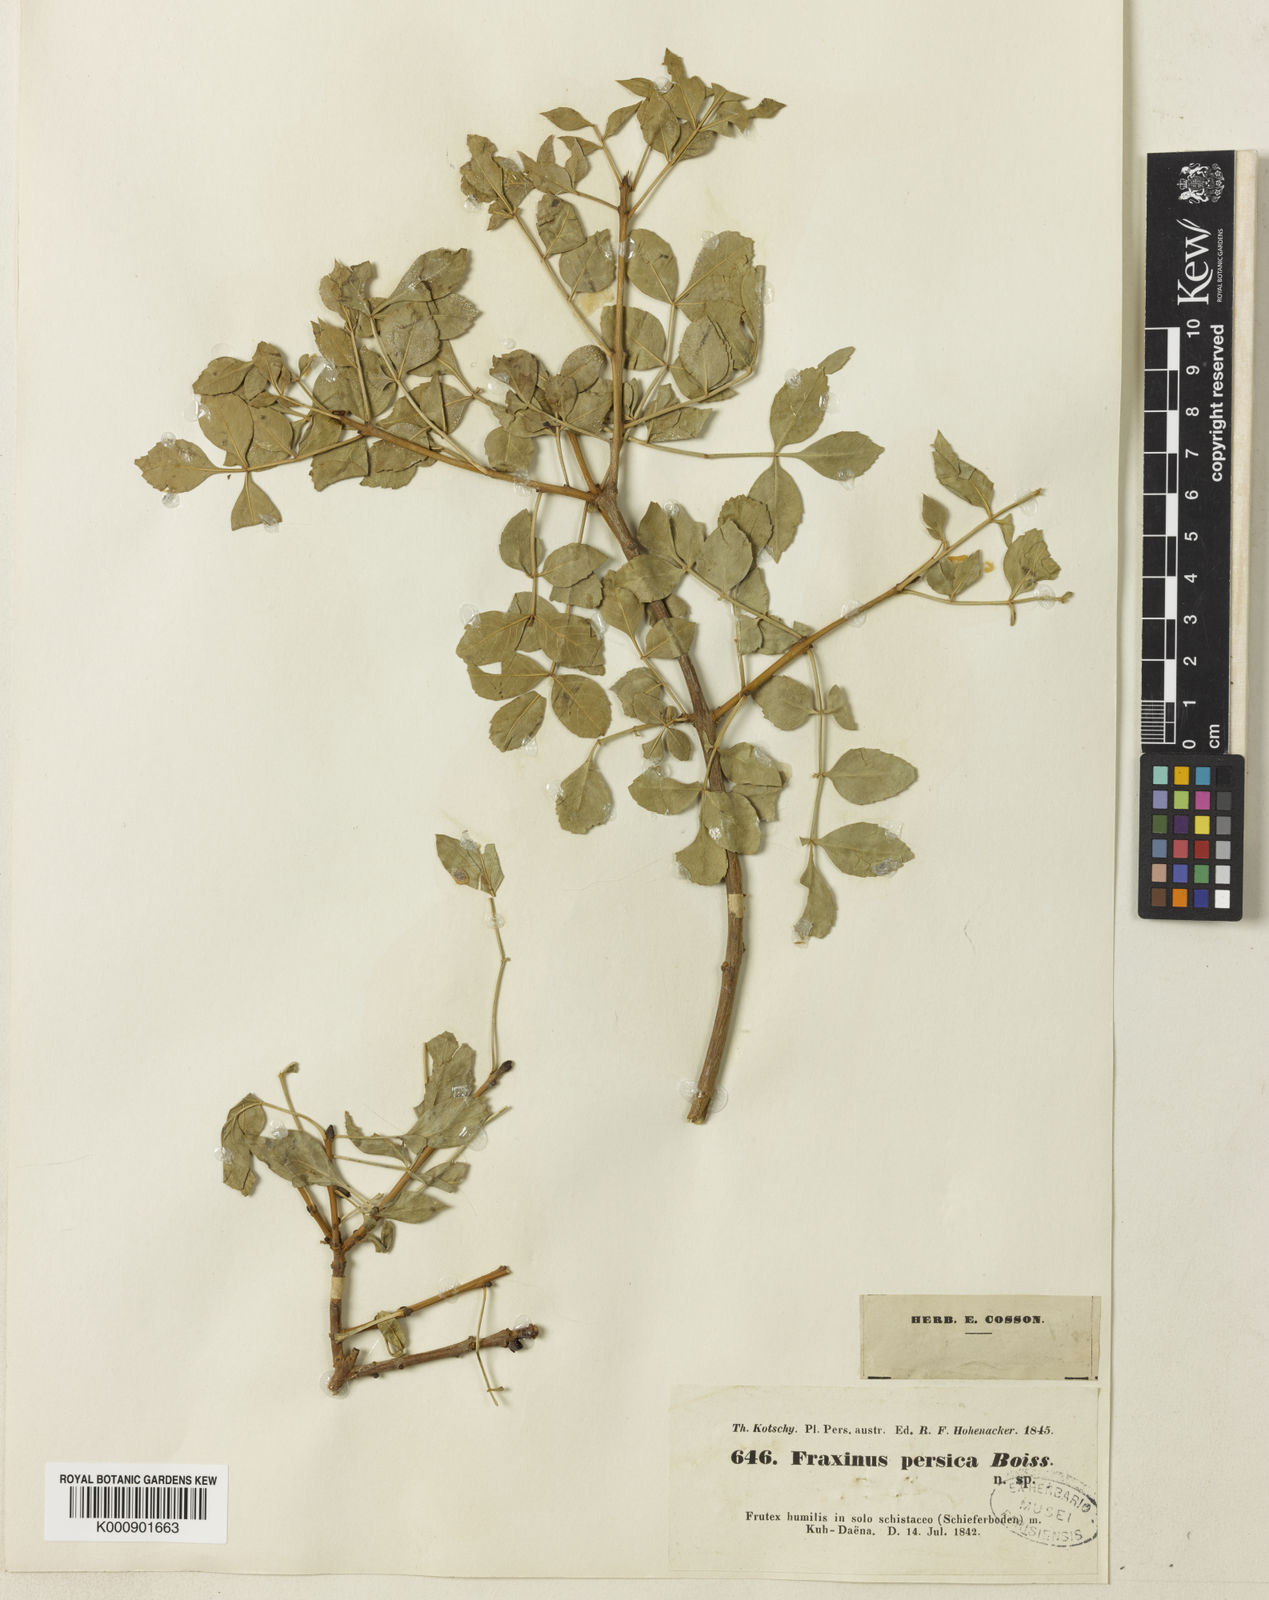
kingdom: Plantae
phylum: Tracheophyta
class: Magnoliopsida
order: Lamiales
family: Oleaceae
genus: Fraxinus
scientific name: Fraxinus
